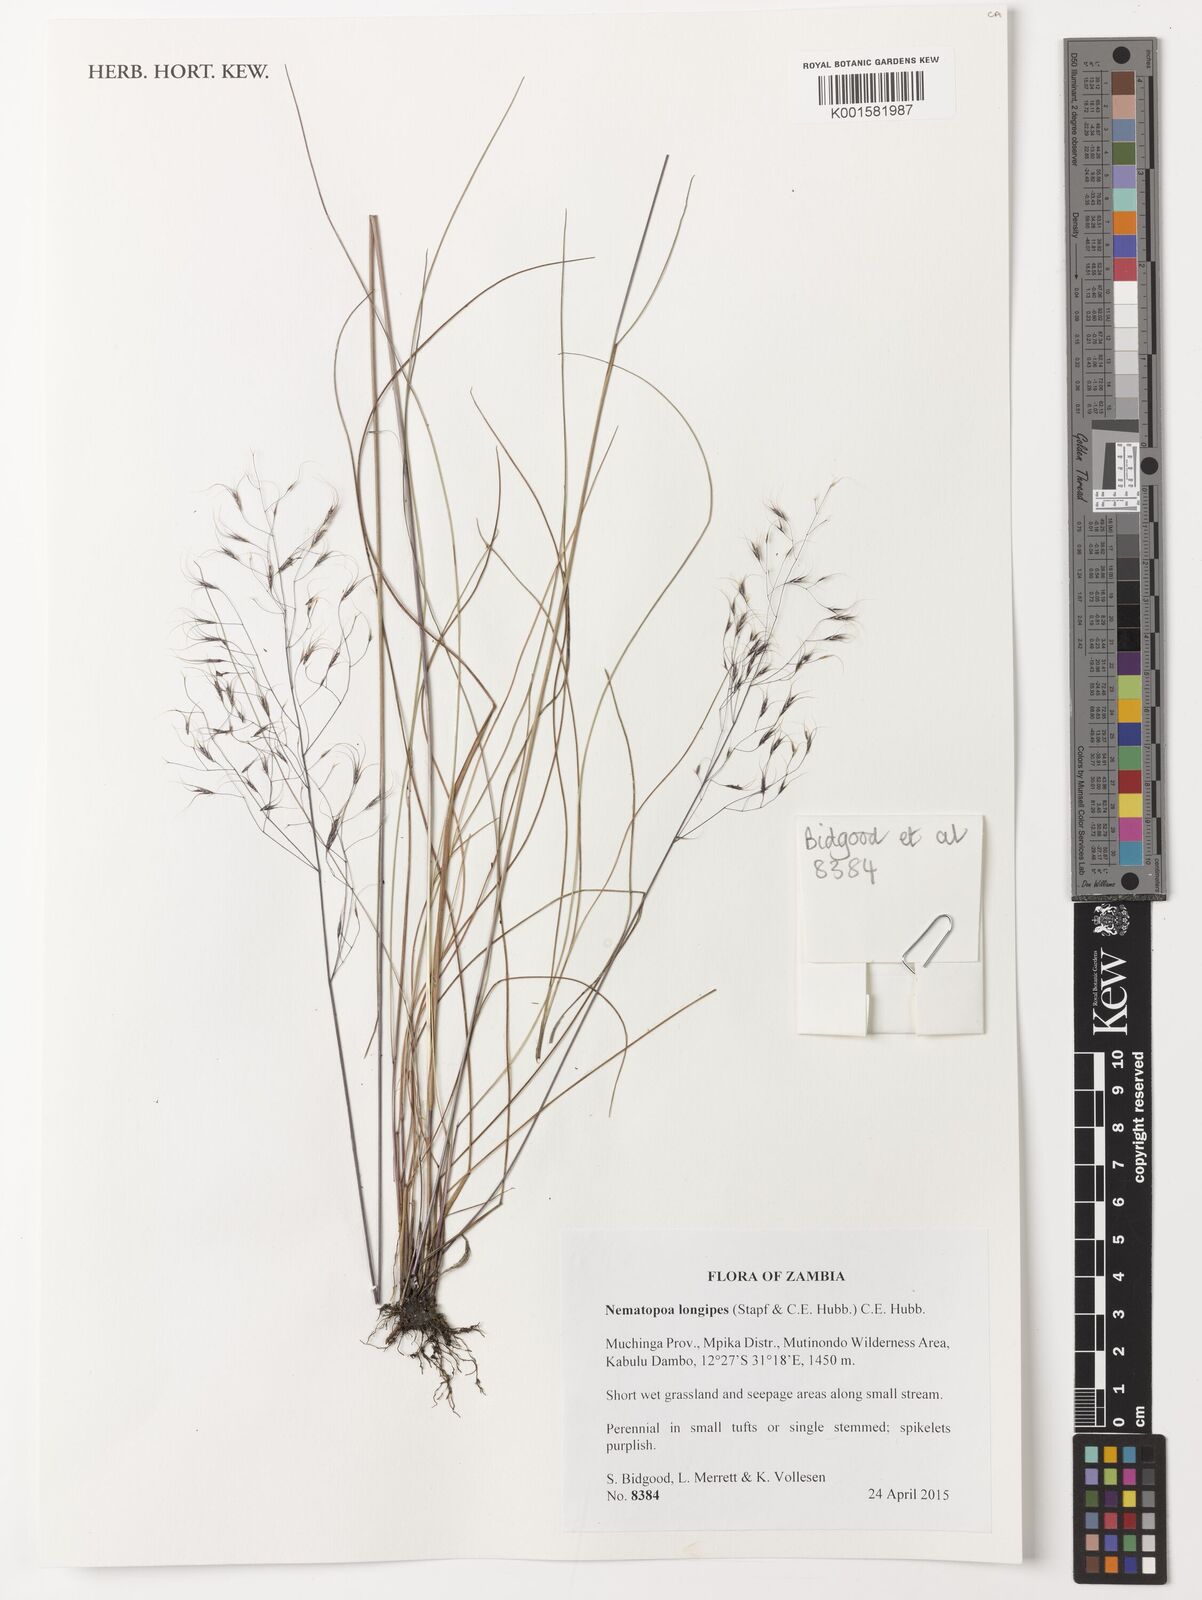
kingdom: Plantae
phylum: Tracheophyta
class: Liliopsida
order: Poales
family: Poaceae
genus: Nematopoa
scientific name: Nematopoa longipes
